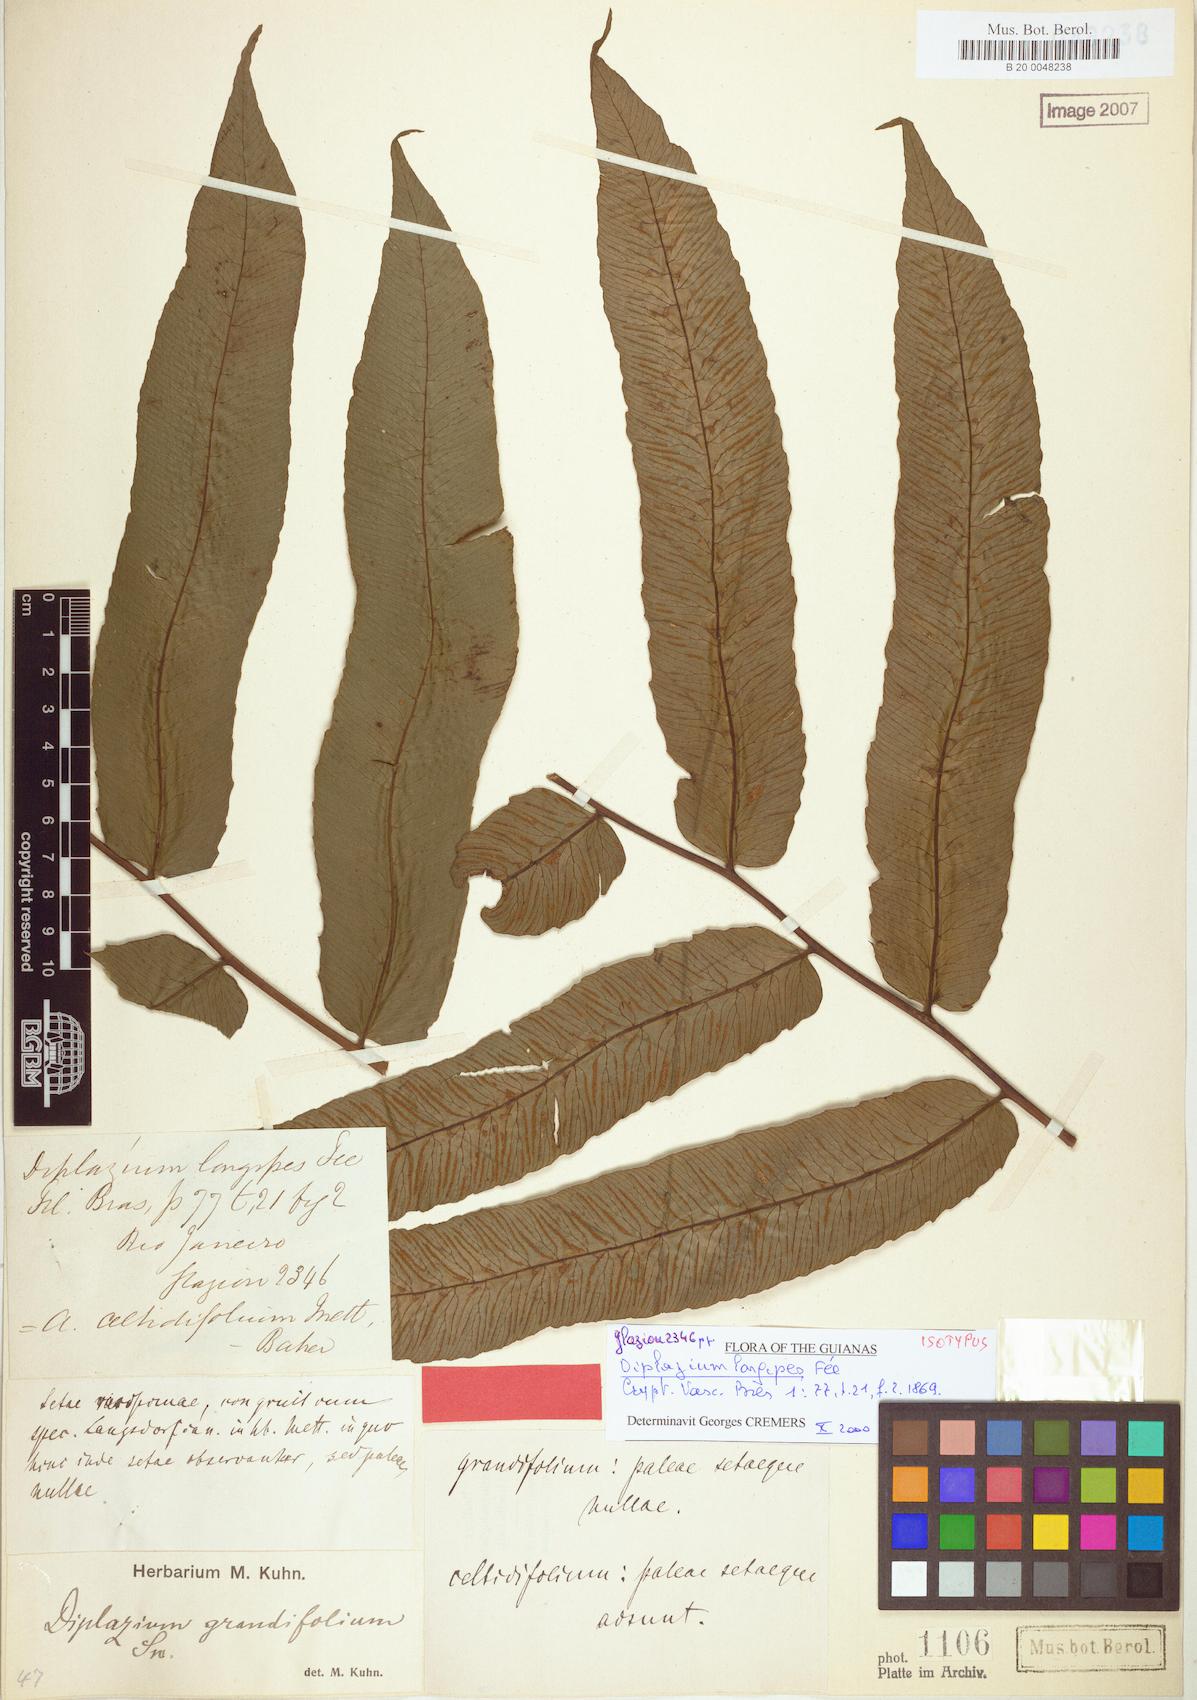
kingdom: Plantae
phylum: Tracheophyta
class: Polypodiopsida
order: Polypodiales
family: Athyriaceae
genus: Diplazium
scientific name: Diplazium longipes
